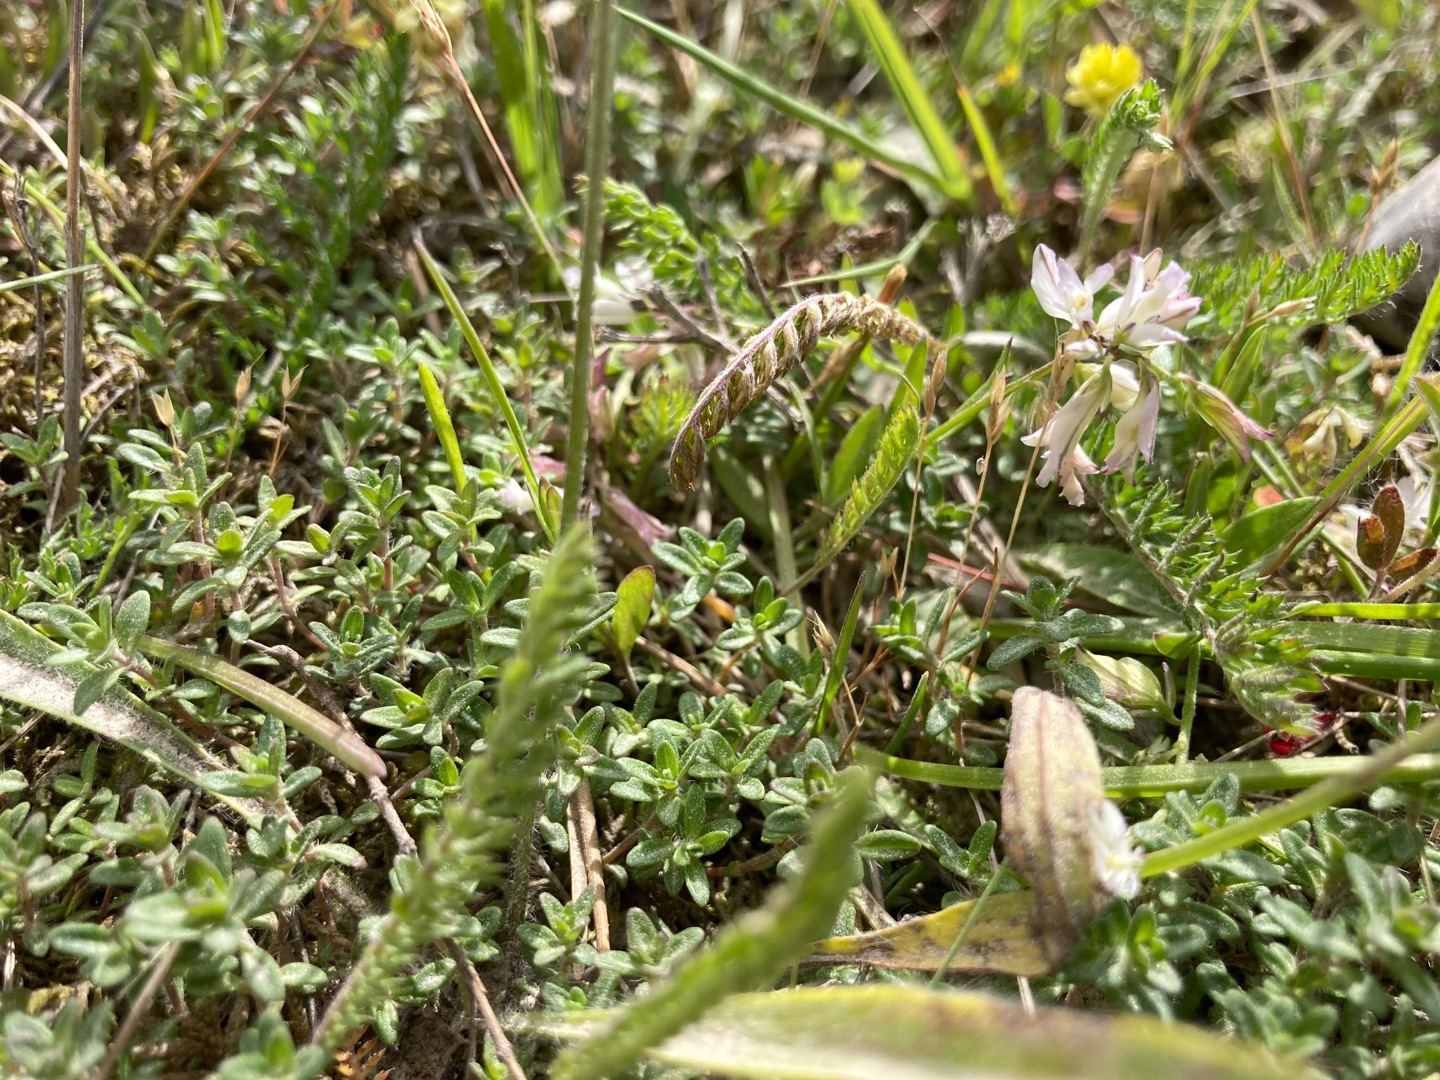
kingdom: Plantae
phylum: Tracheophyta
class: Magnoliopsida
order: Lamiales
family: Lamiaceae
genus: Thymus
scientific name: Thymus serpyllum
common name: Smalbladet timian
